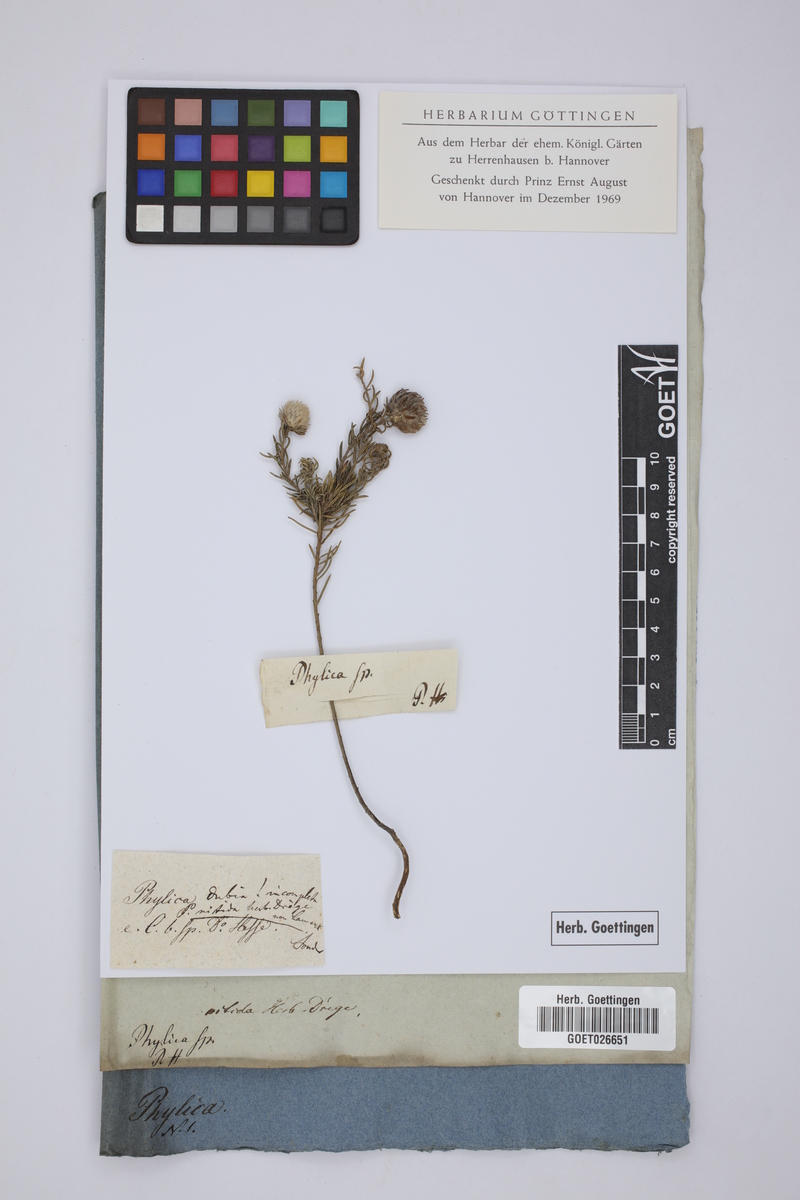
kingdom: Plantae
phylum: Tracheophyta
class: Magnoliopsida
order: Rosales
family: Rhamnaceae
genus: Phylica
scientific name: Phylica nitida
